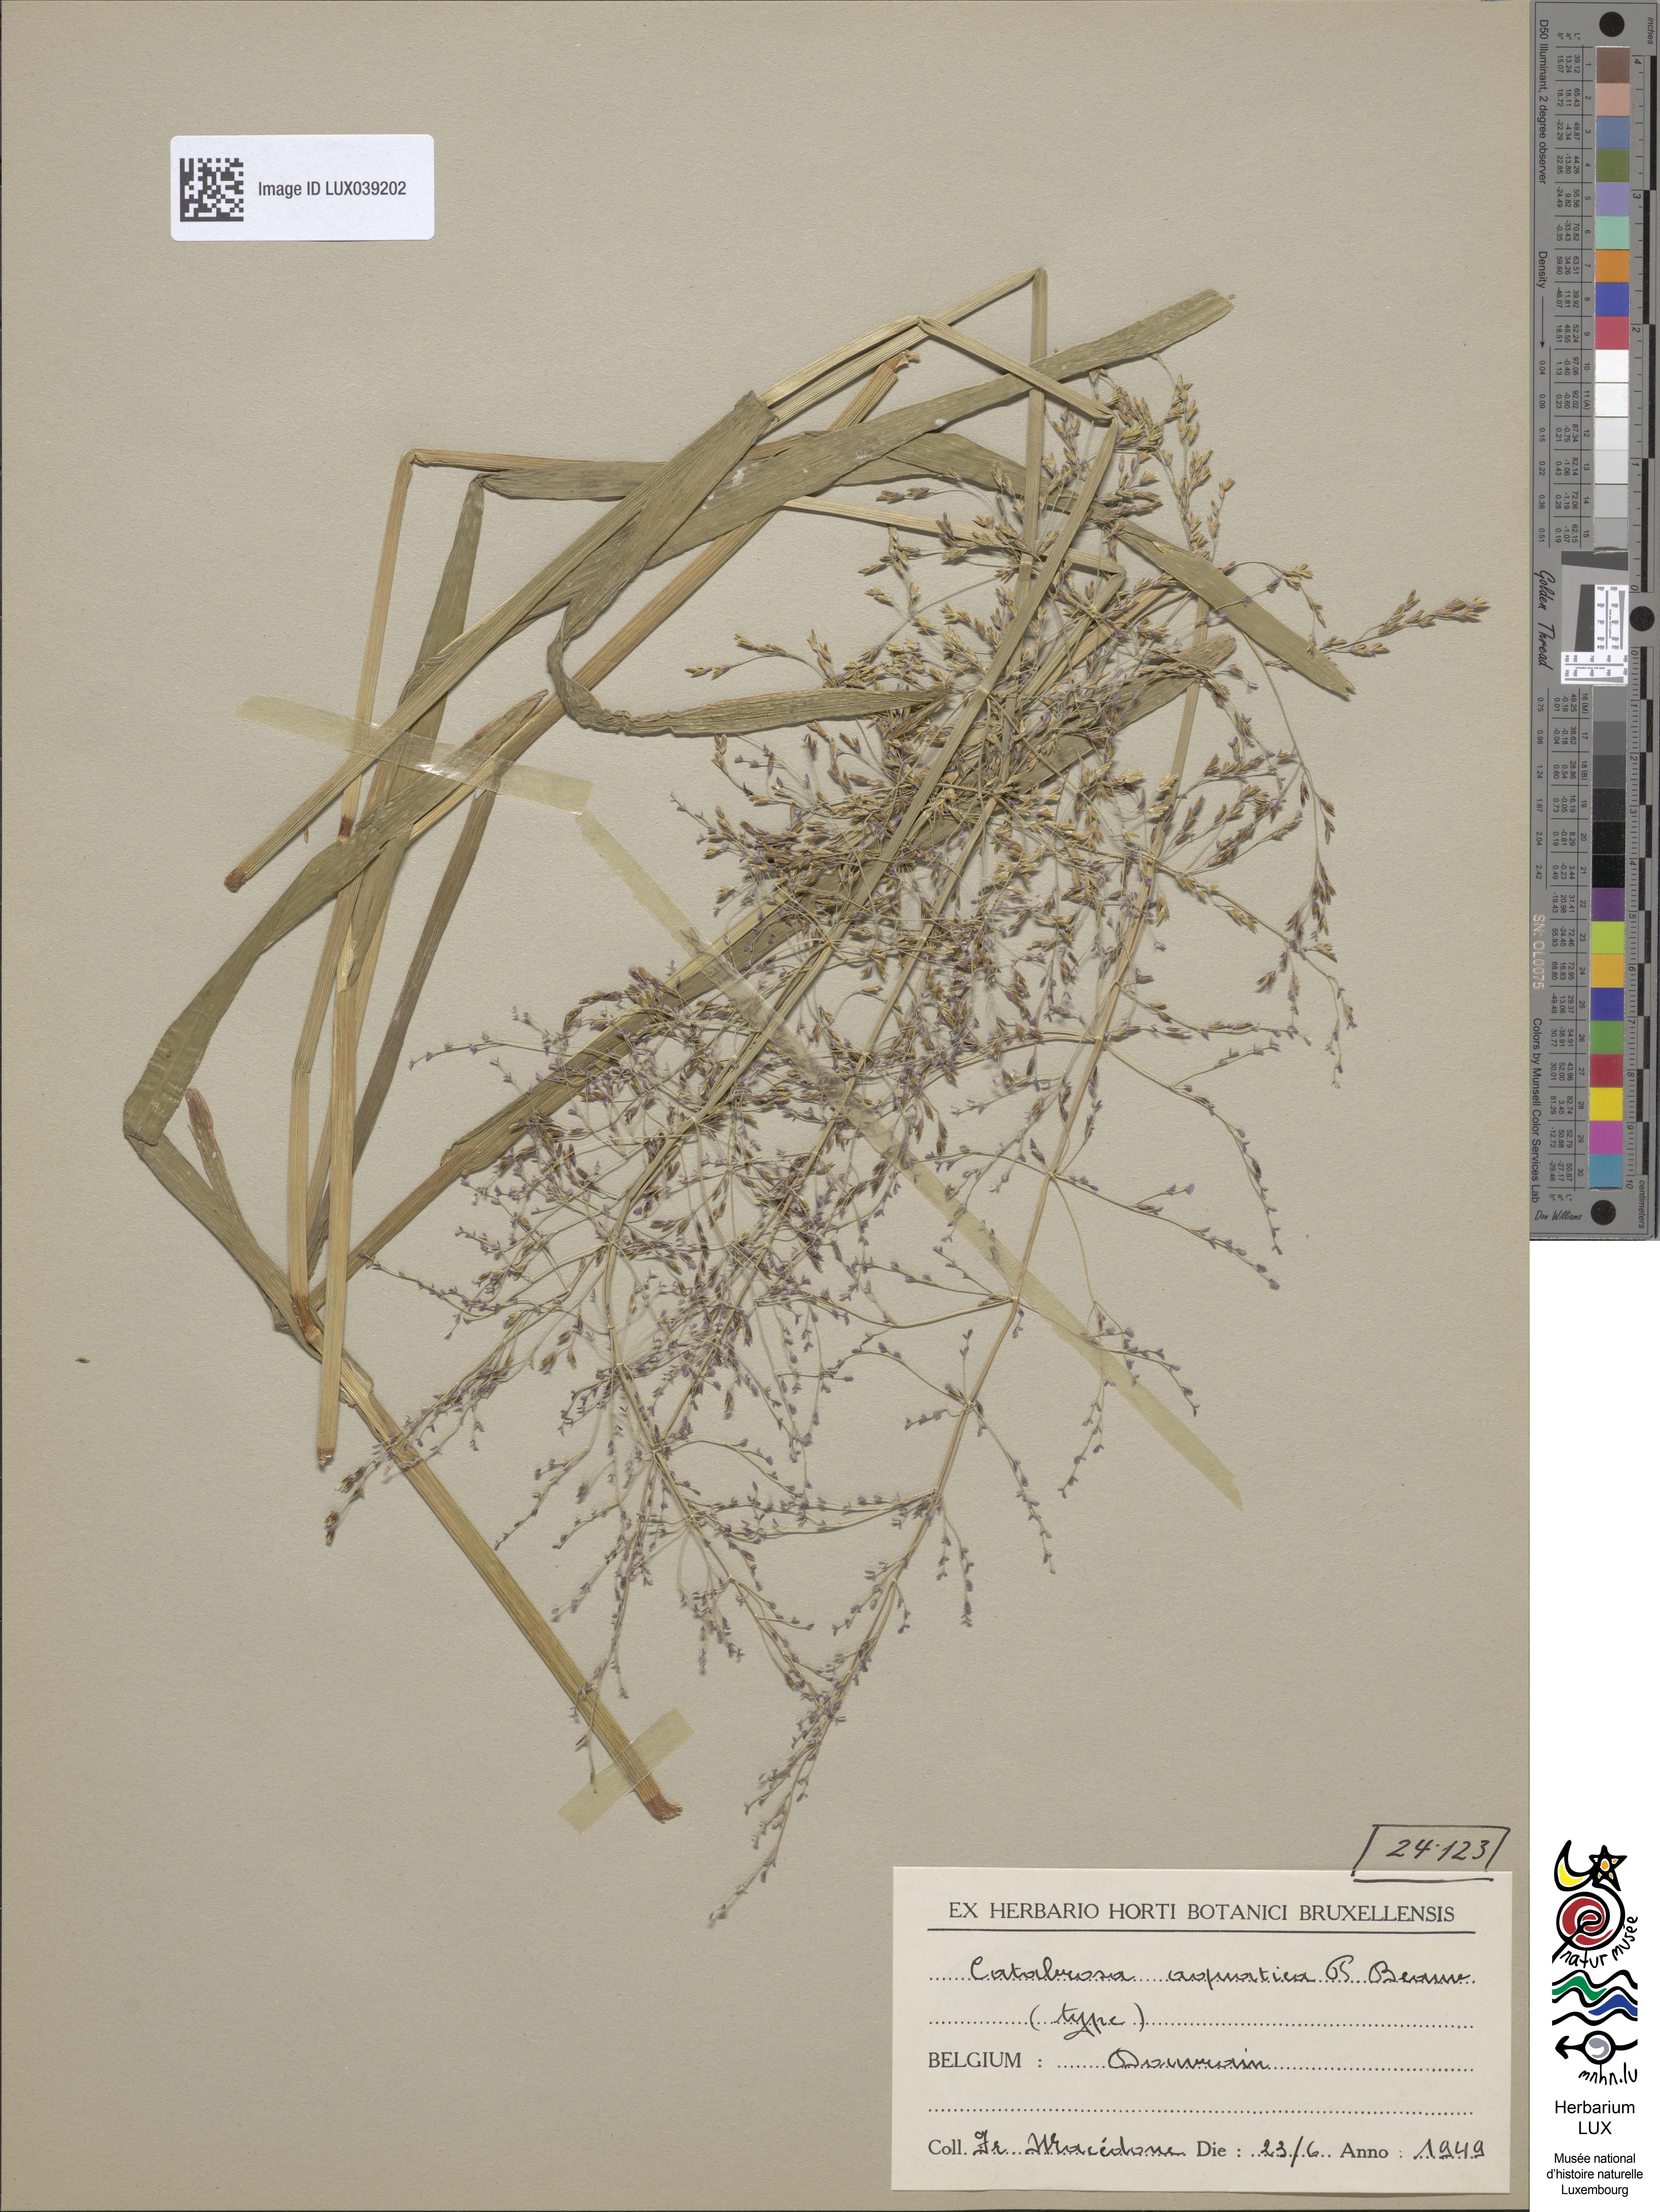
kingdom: Plantae
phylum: Tracheophyta
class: Liliopsida
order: Poales
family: Poaceae
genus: Catabrosa
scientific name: Catabrosa aquatica
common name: Whorl-grass
